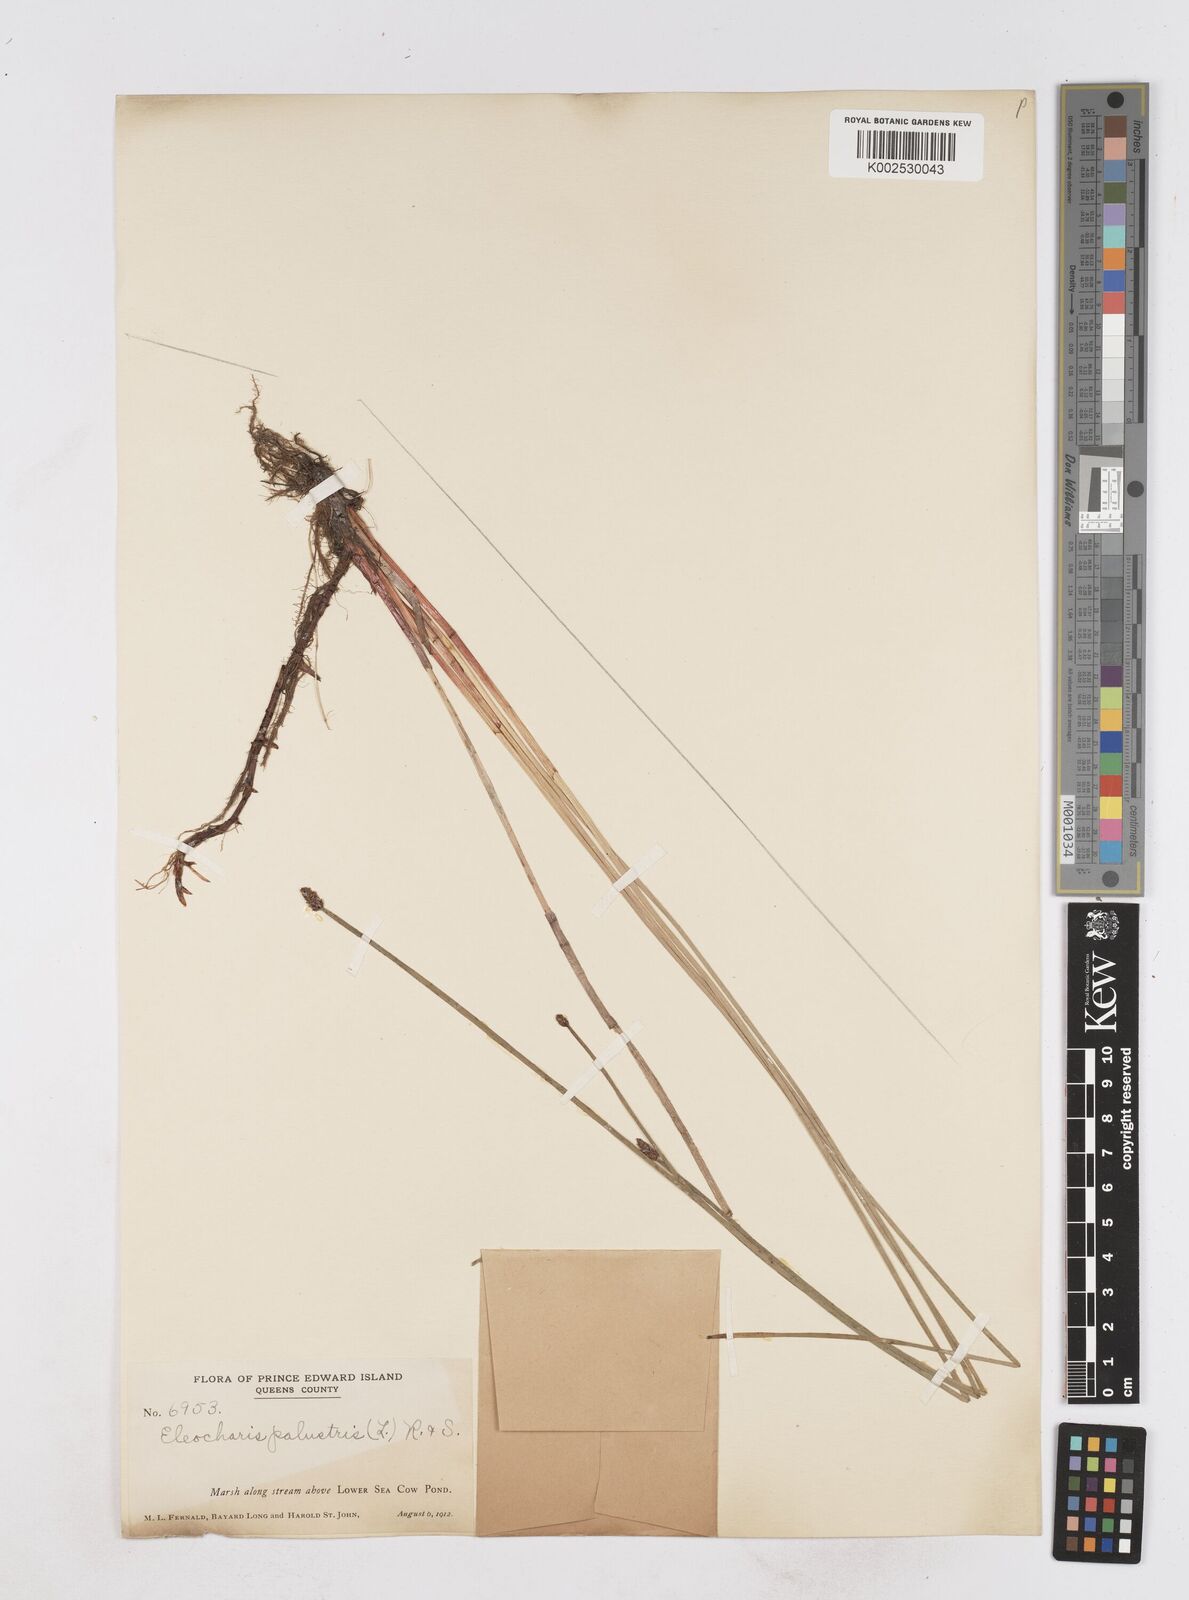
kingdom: Plantae
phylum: Tracheophyta
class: Liliopsida
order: Poales
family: Cyperaceae
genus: Eleocharis
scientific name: Eleocharis palustris
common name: Common spike-rush
